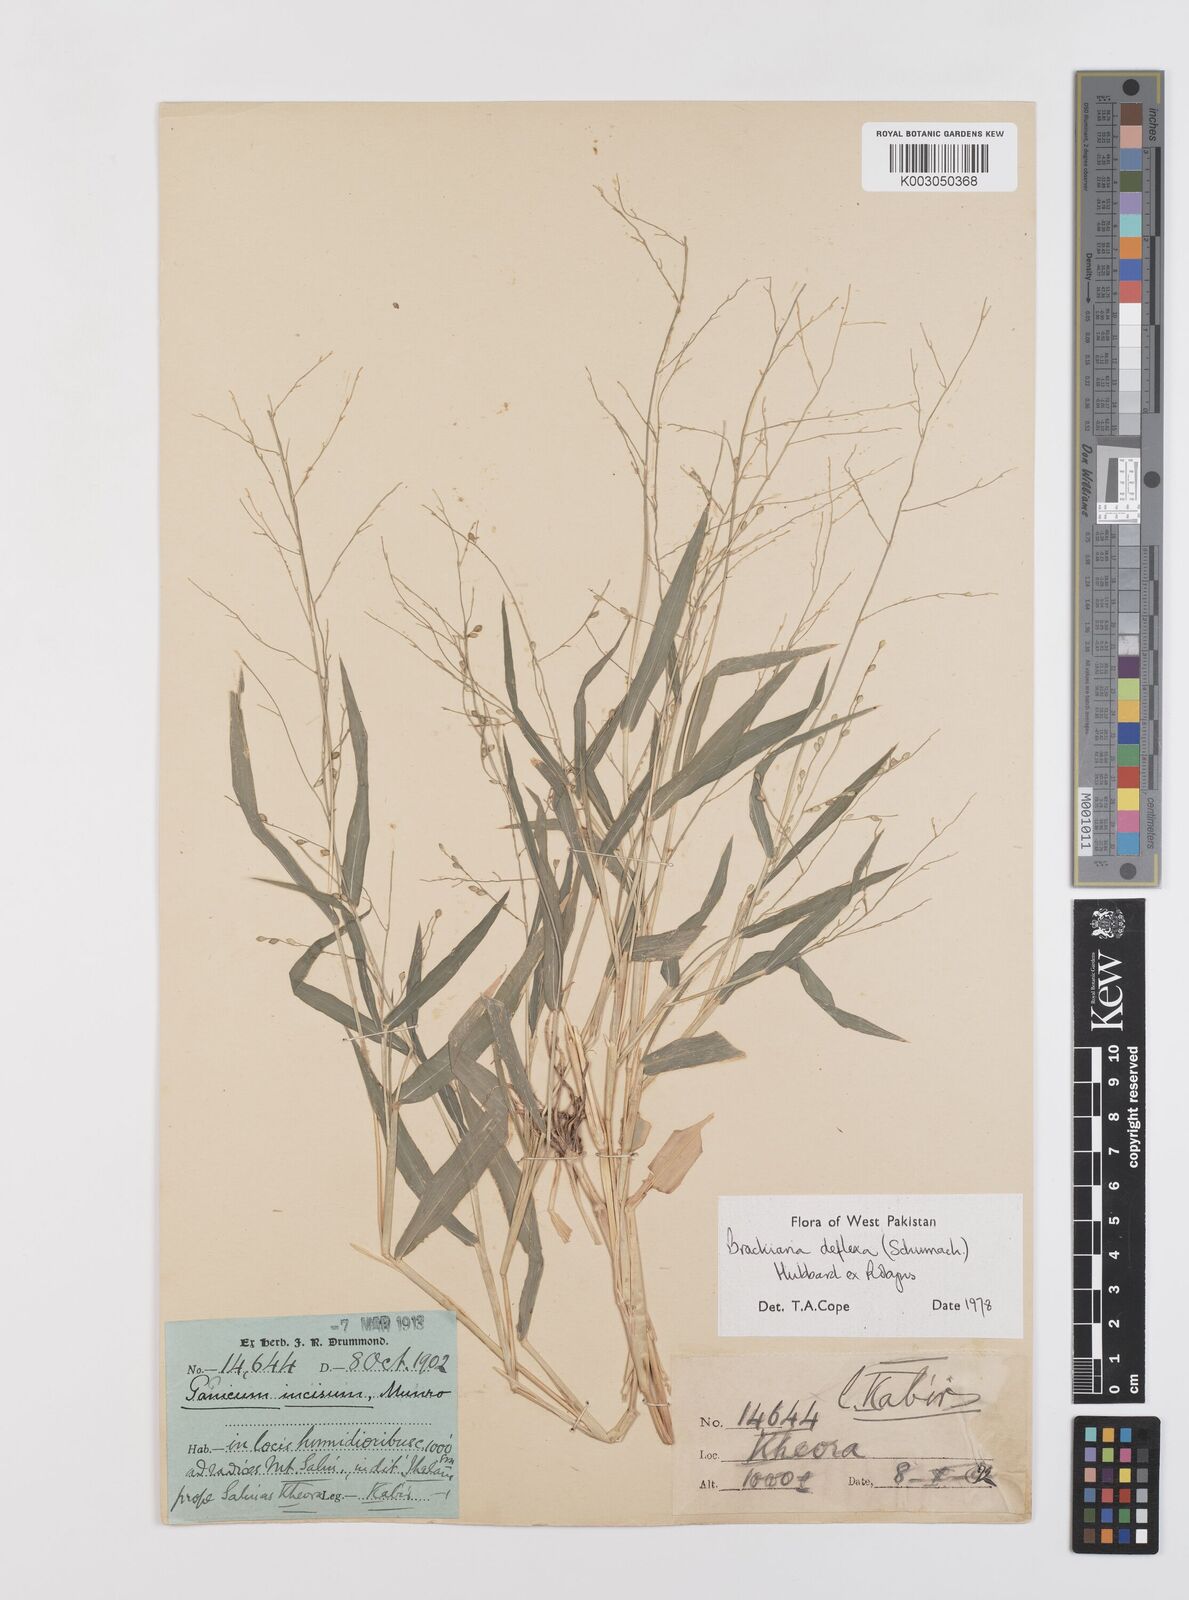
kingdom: Plantae
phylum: Tracheophyta
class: Liliopsida
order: Poales
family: Poaceae
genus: Urochloa
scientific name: Urochloa deflexa
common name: Guinea millet
